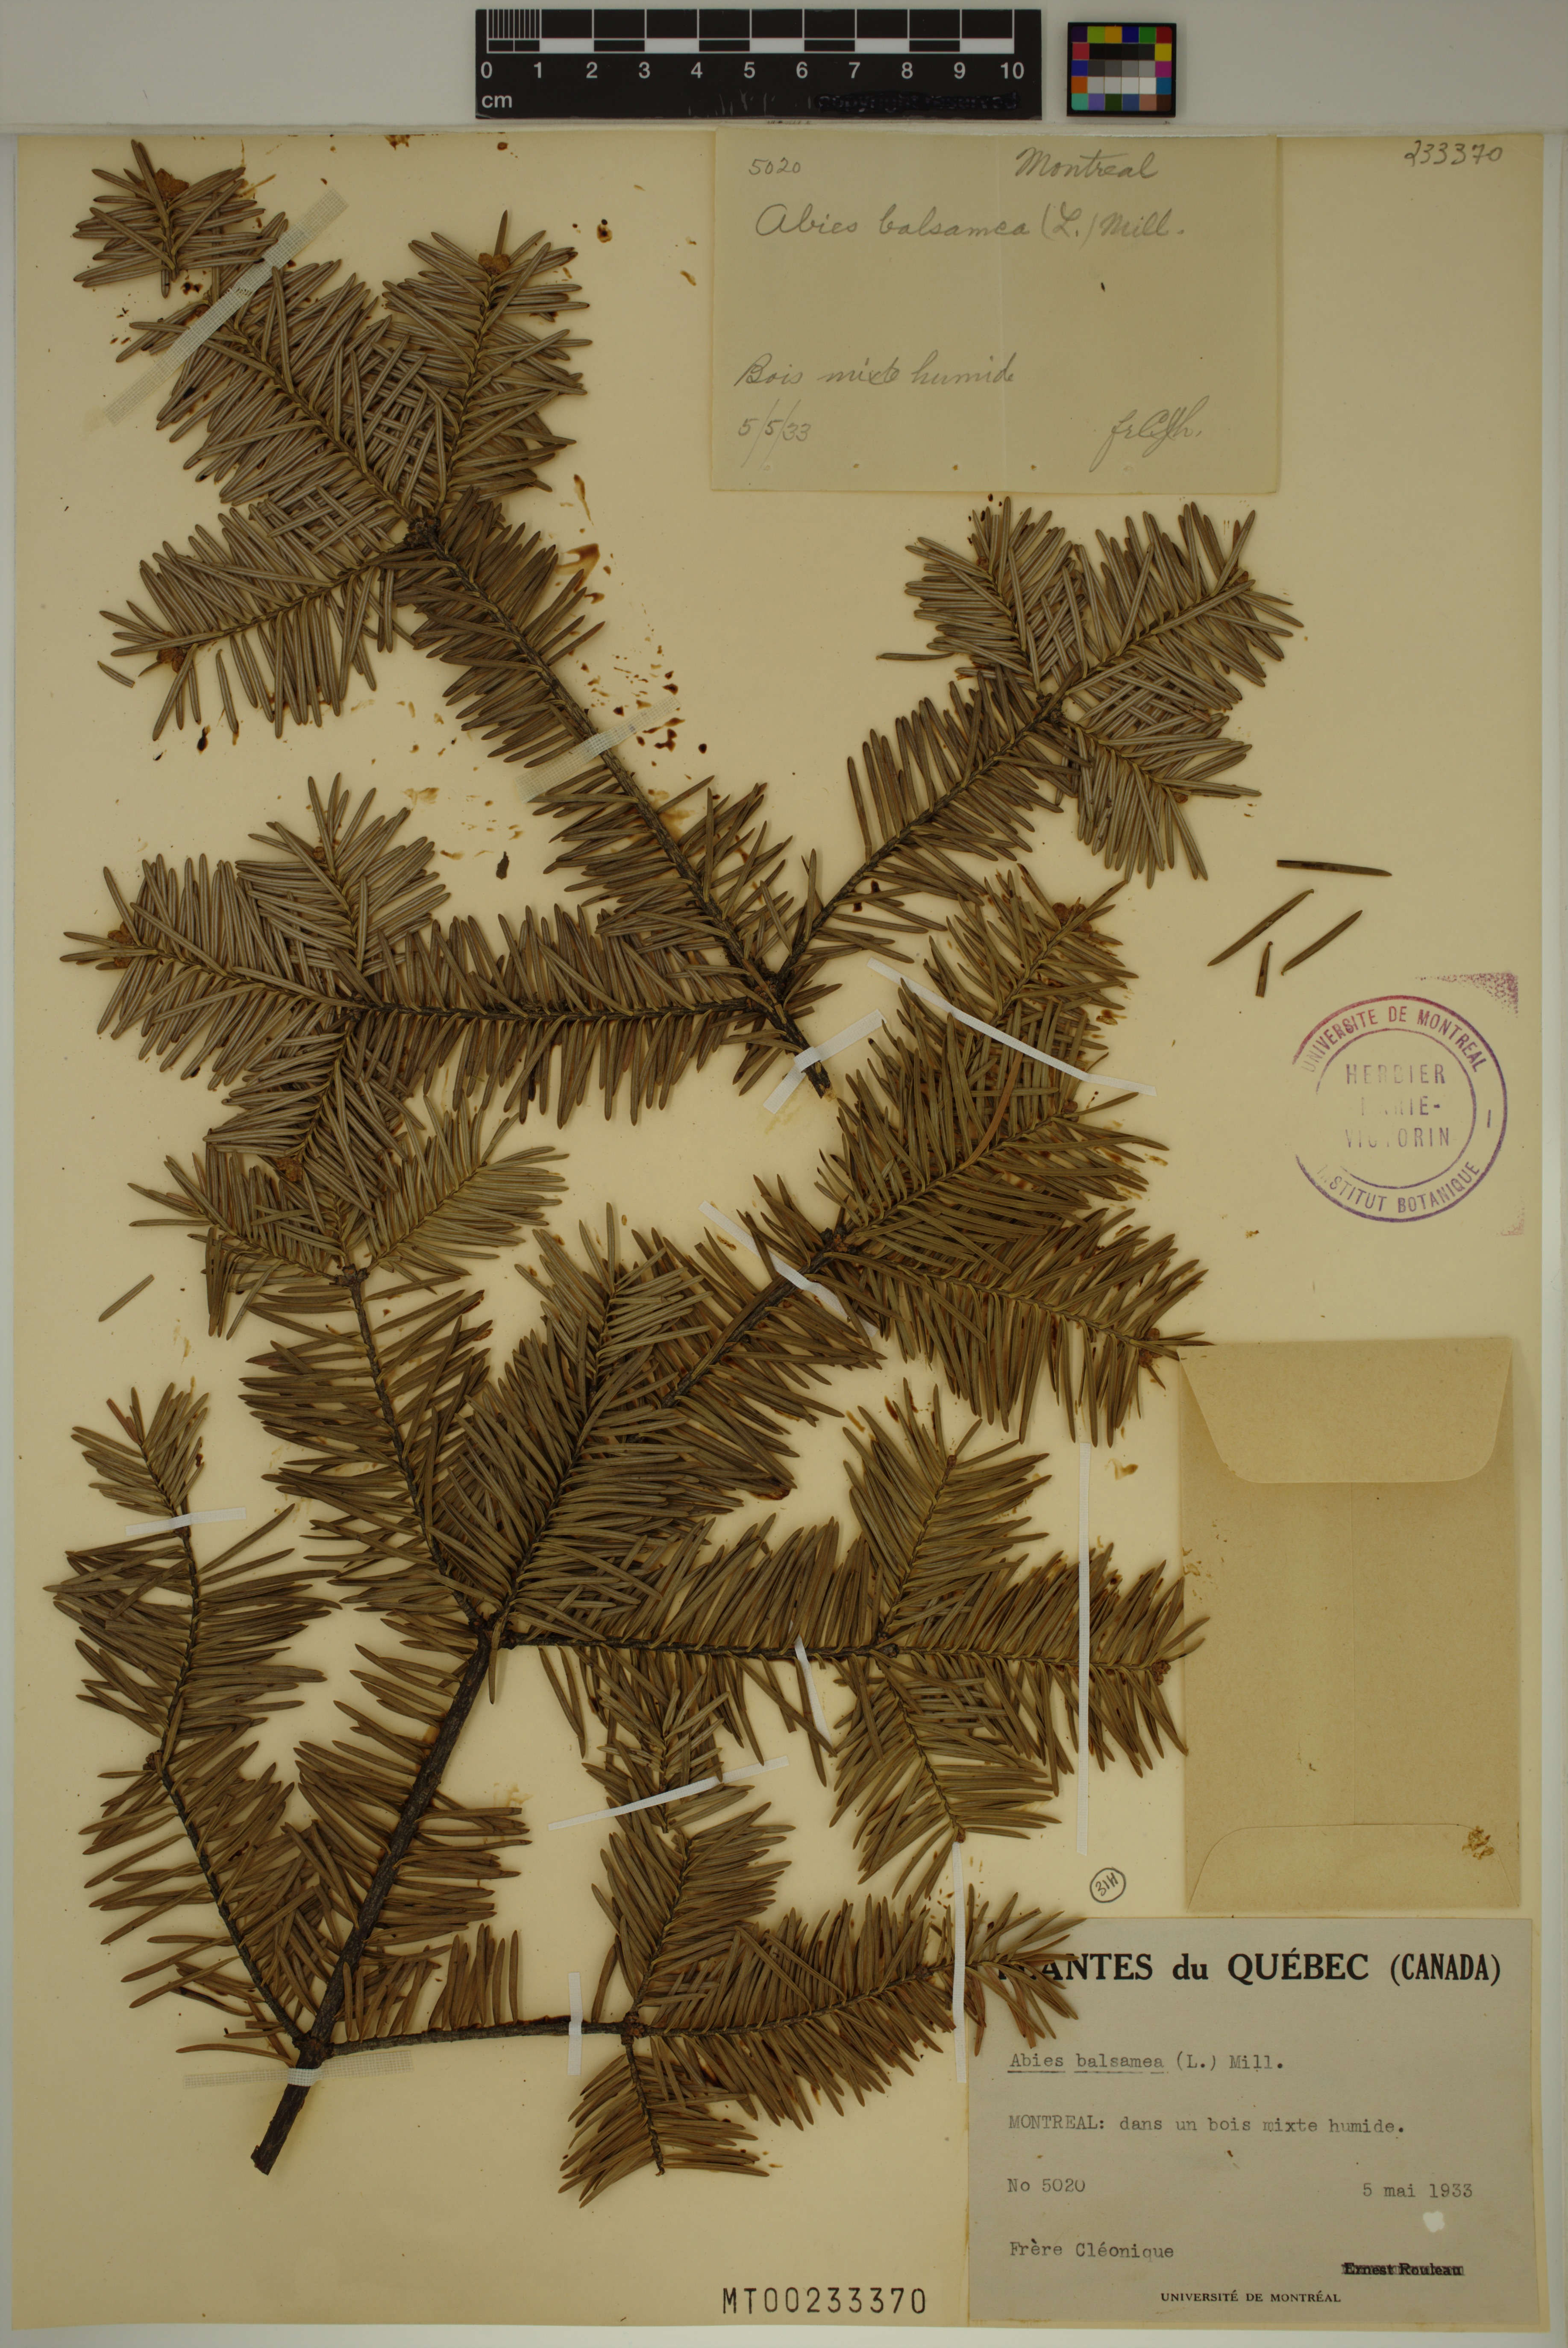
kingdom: Plantae
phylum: Tracheophyta
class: Pinopsida
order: Pinales
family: Pinaceae
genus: Abies
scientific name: Abies balsamea
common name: Balsam fir
